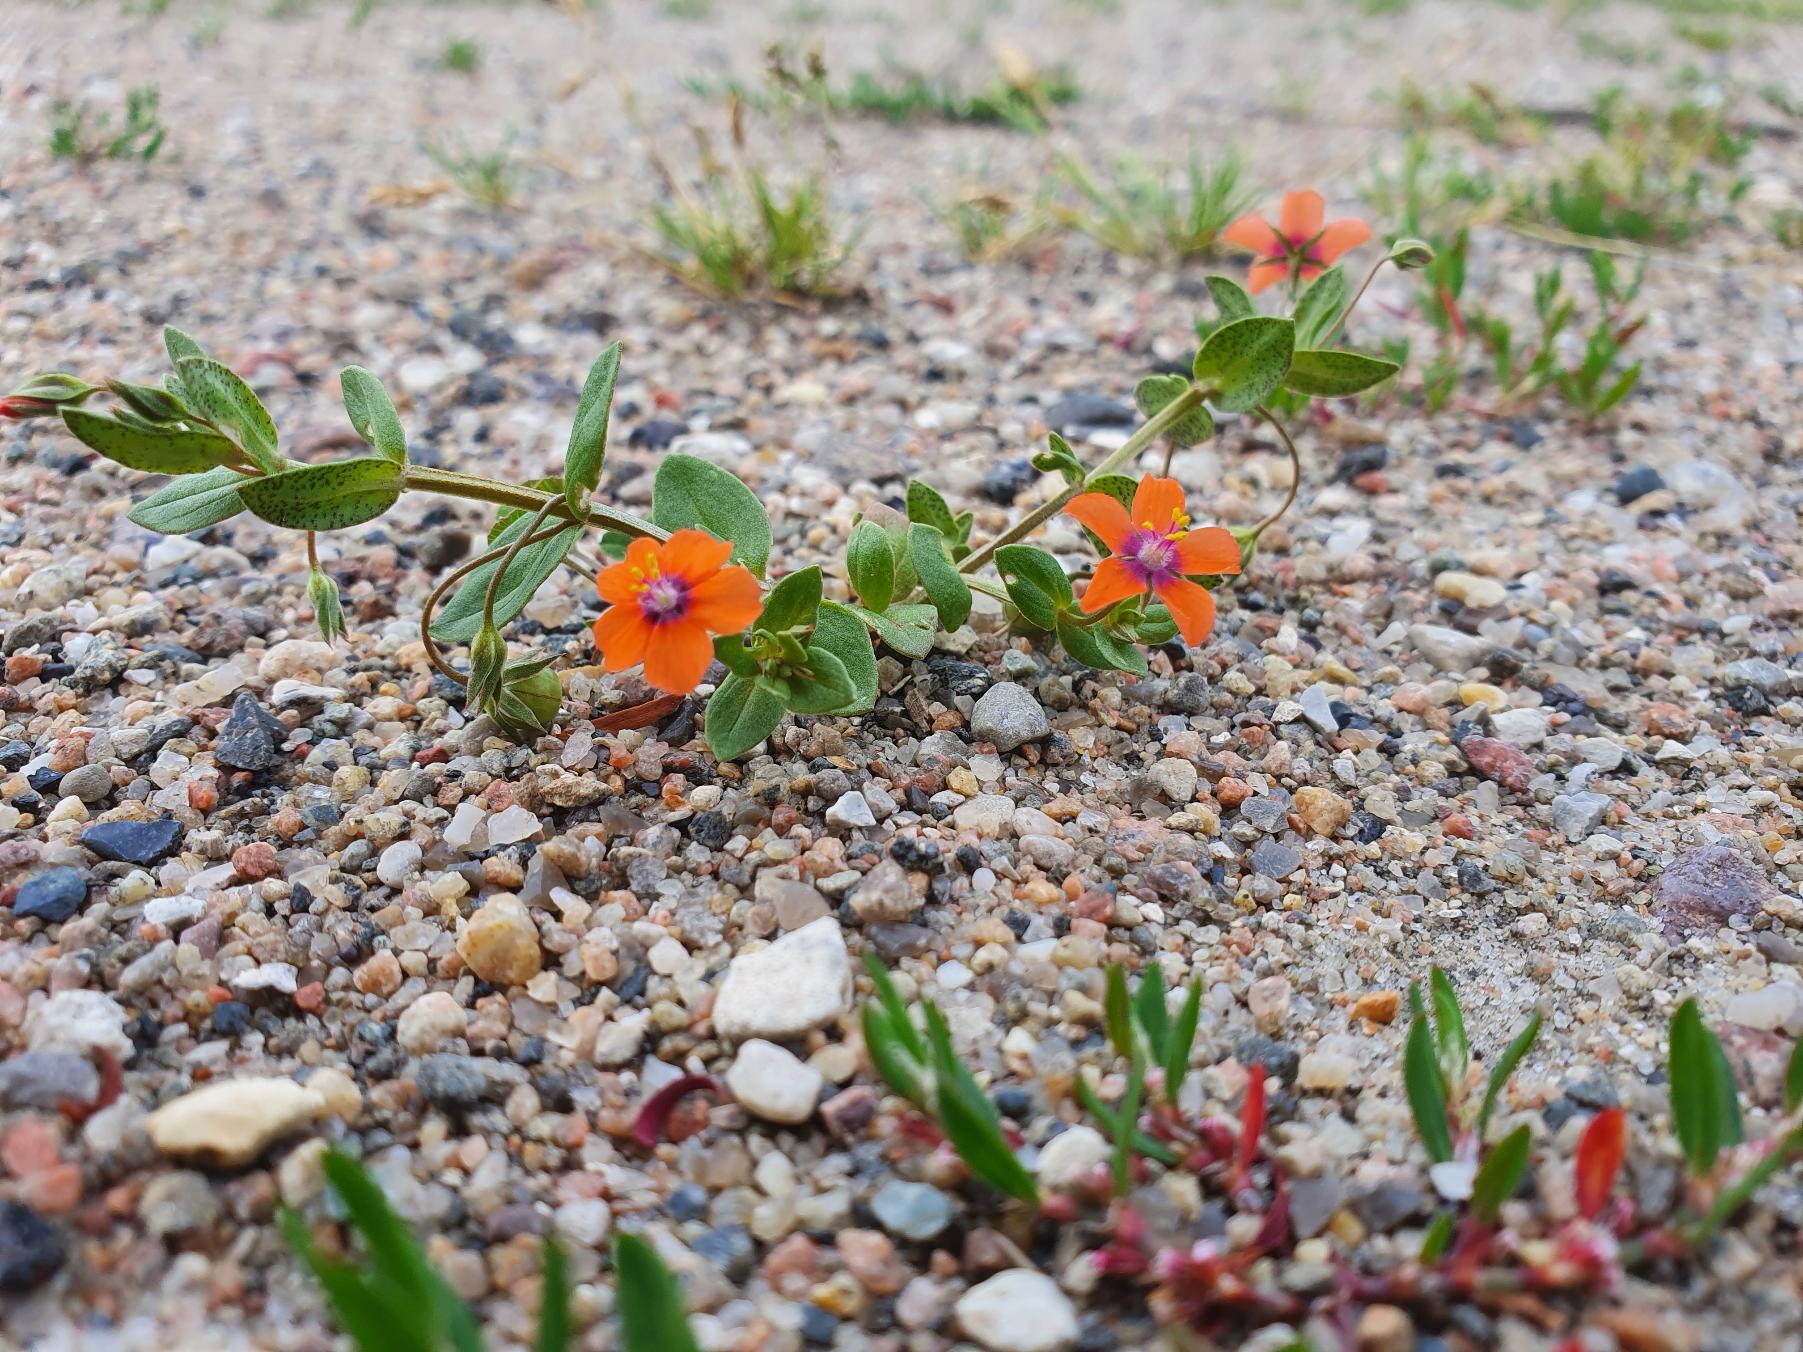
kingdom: Plantae
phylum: Tracheophyta
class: Magnoliopsida
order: Ericales
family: Primulaceae
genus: Lysimachia
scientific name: Lysimachia arvensis
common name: Rød arve
